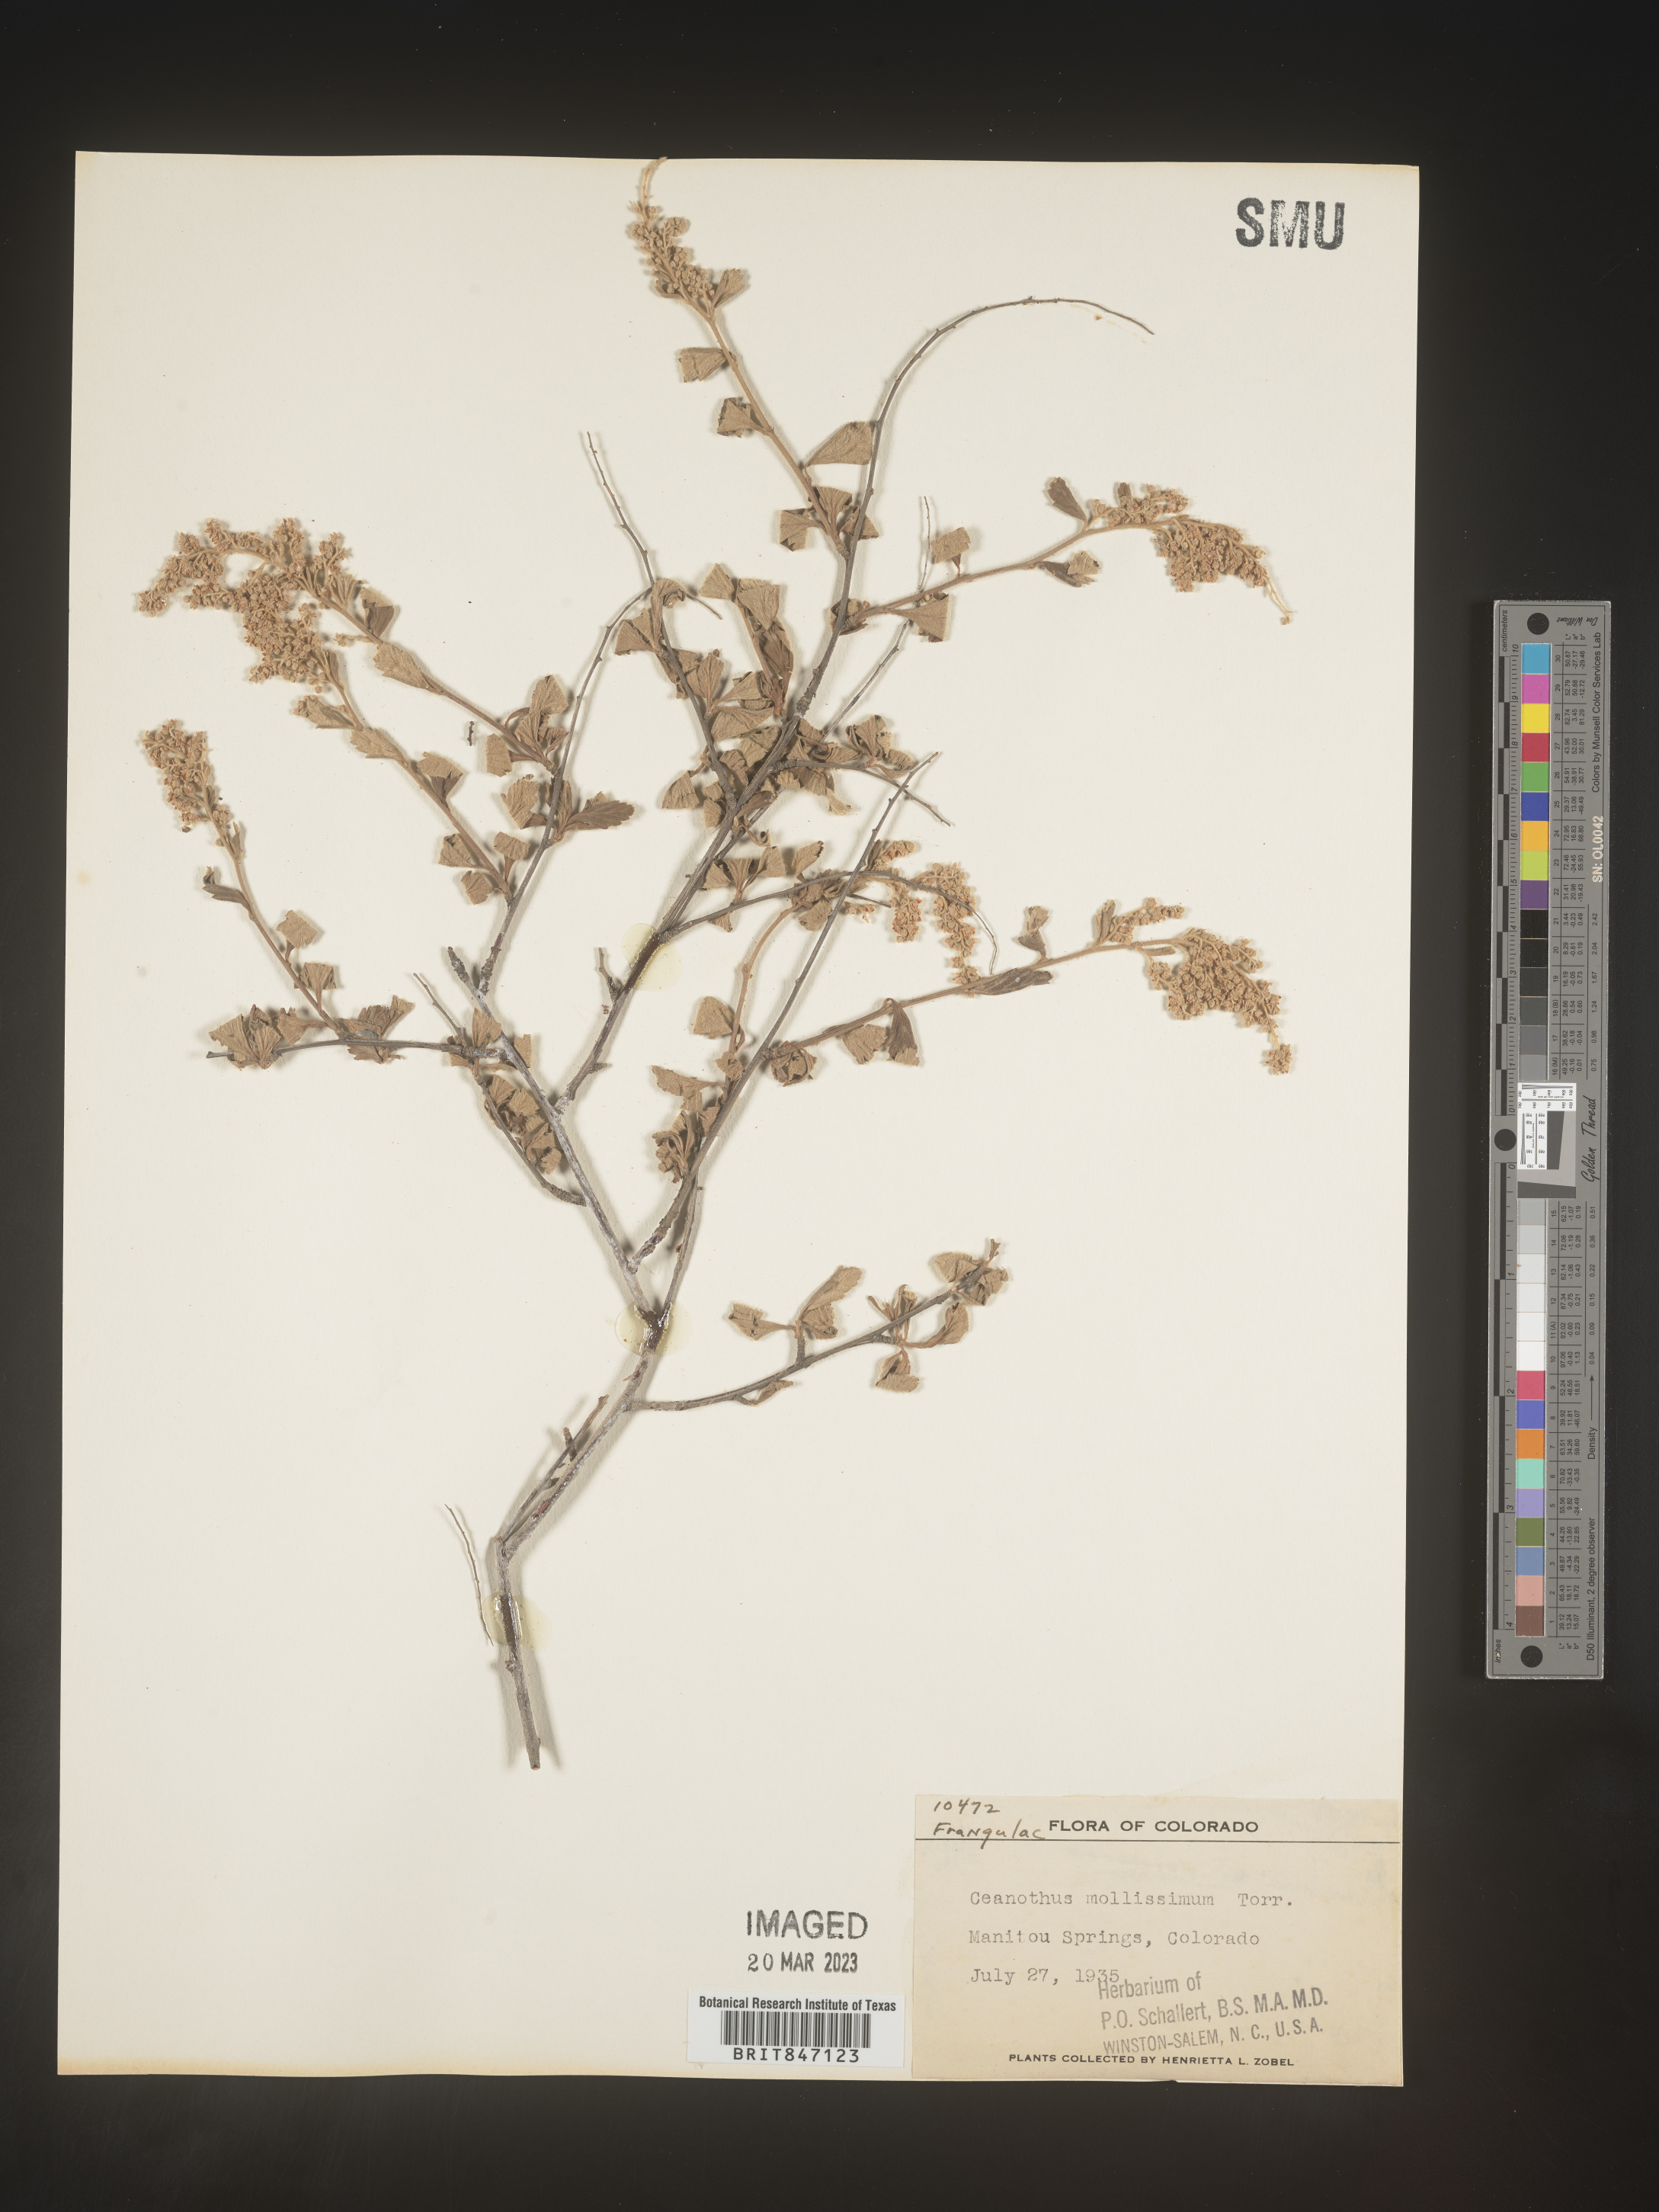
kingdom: Plantae
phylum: Tracheophyta
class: Magnoliopsida
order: Rosales
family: Rhamnaceae
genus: Ceanothus
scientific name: Ceanothus
